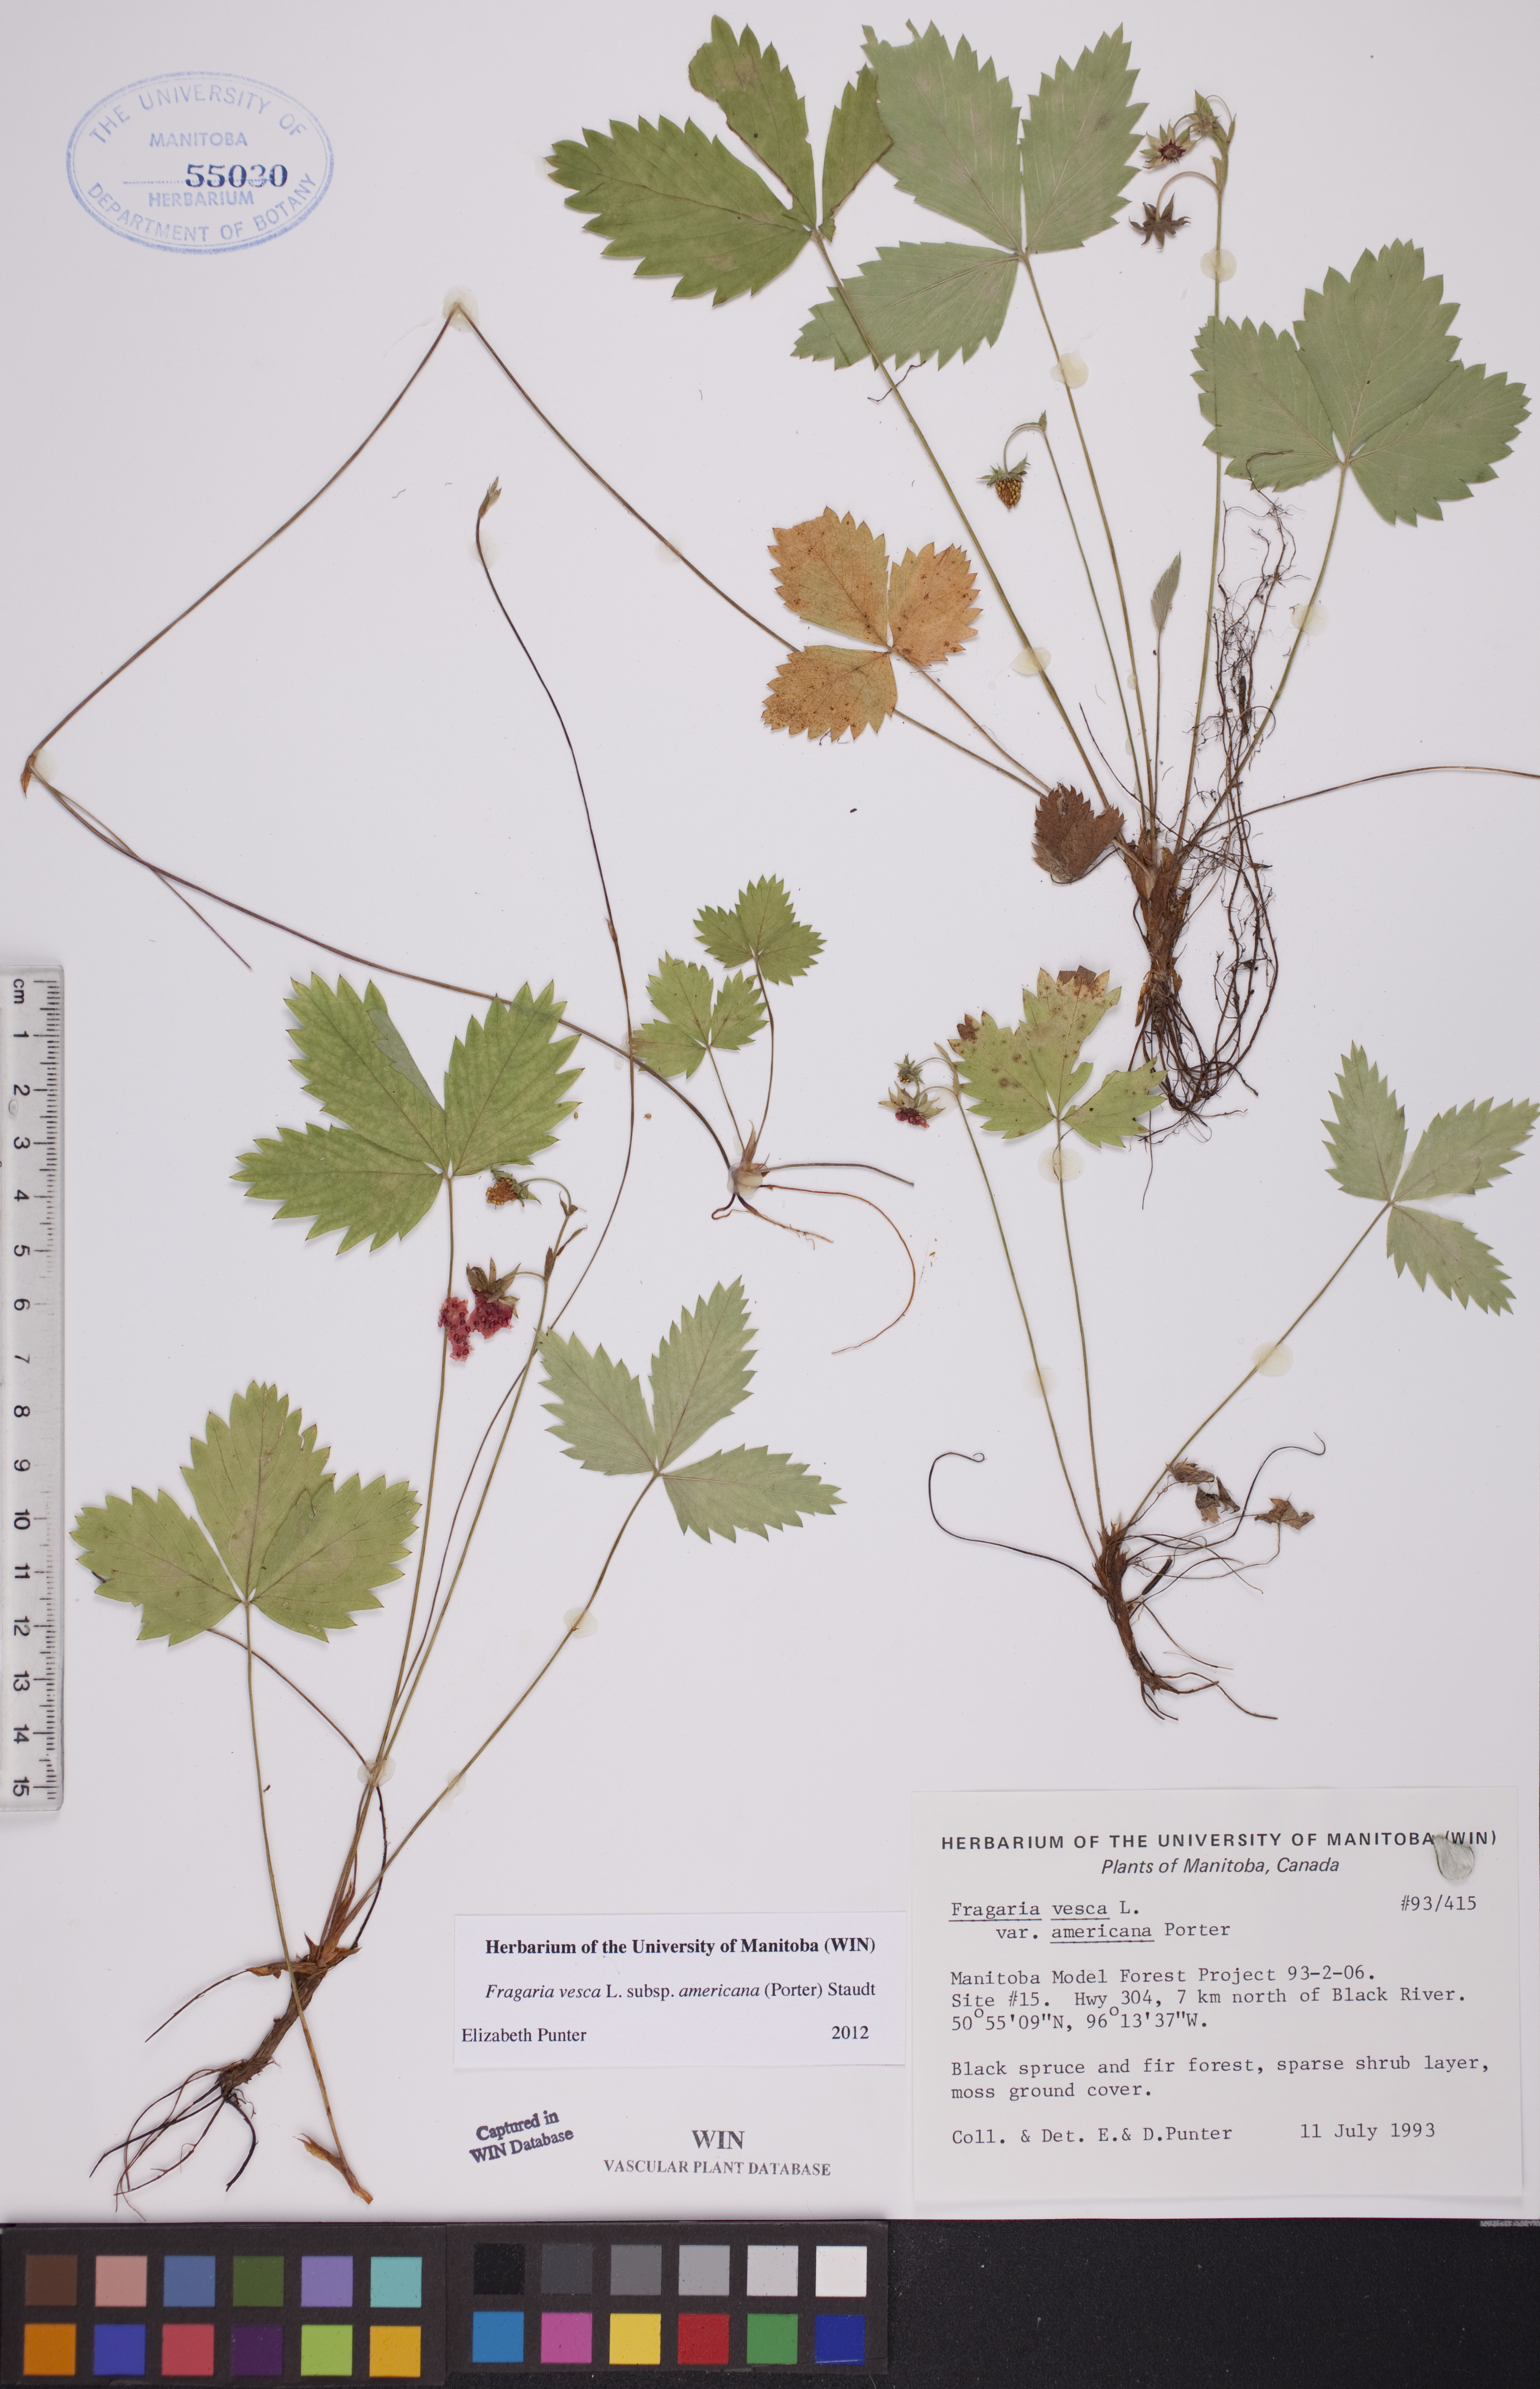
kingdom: Plantae
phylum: Tracheophyta
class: Magnoliopsida
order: Rosales
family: Rosaceae
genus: Fragaria
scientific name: Fragaria vesca
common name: Wild strawberry
